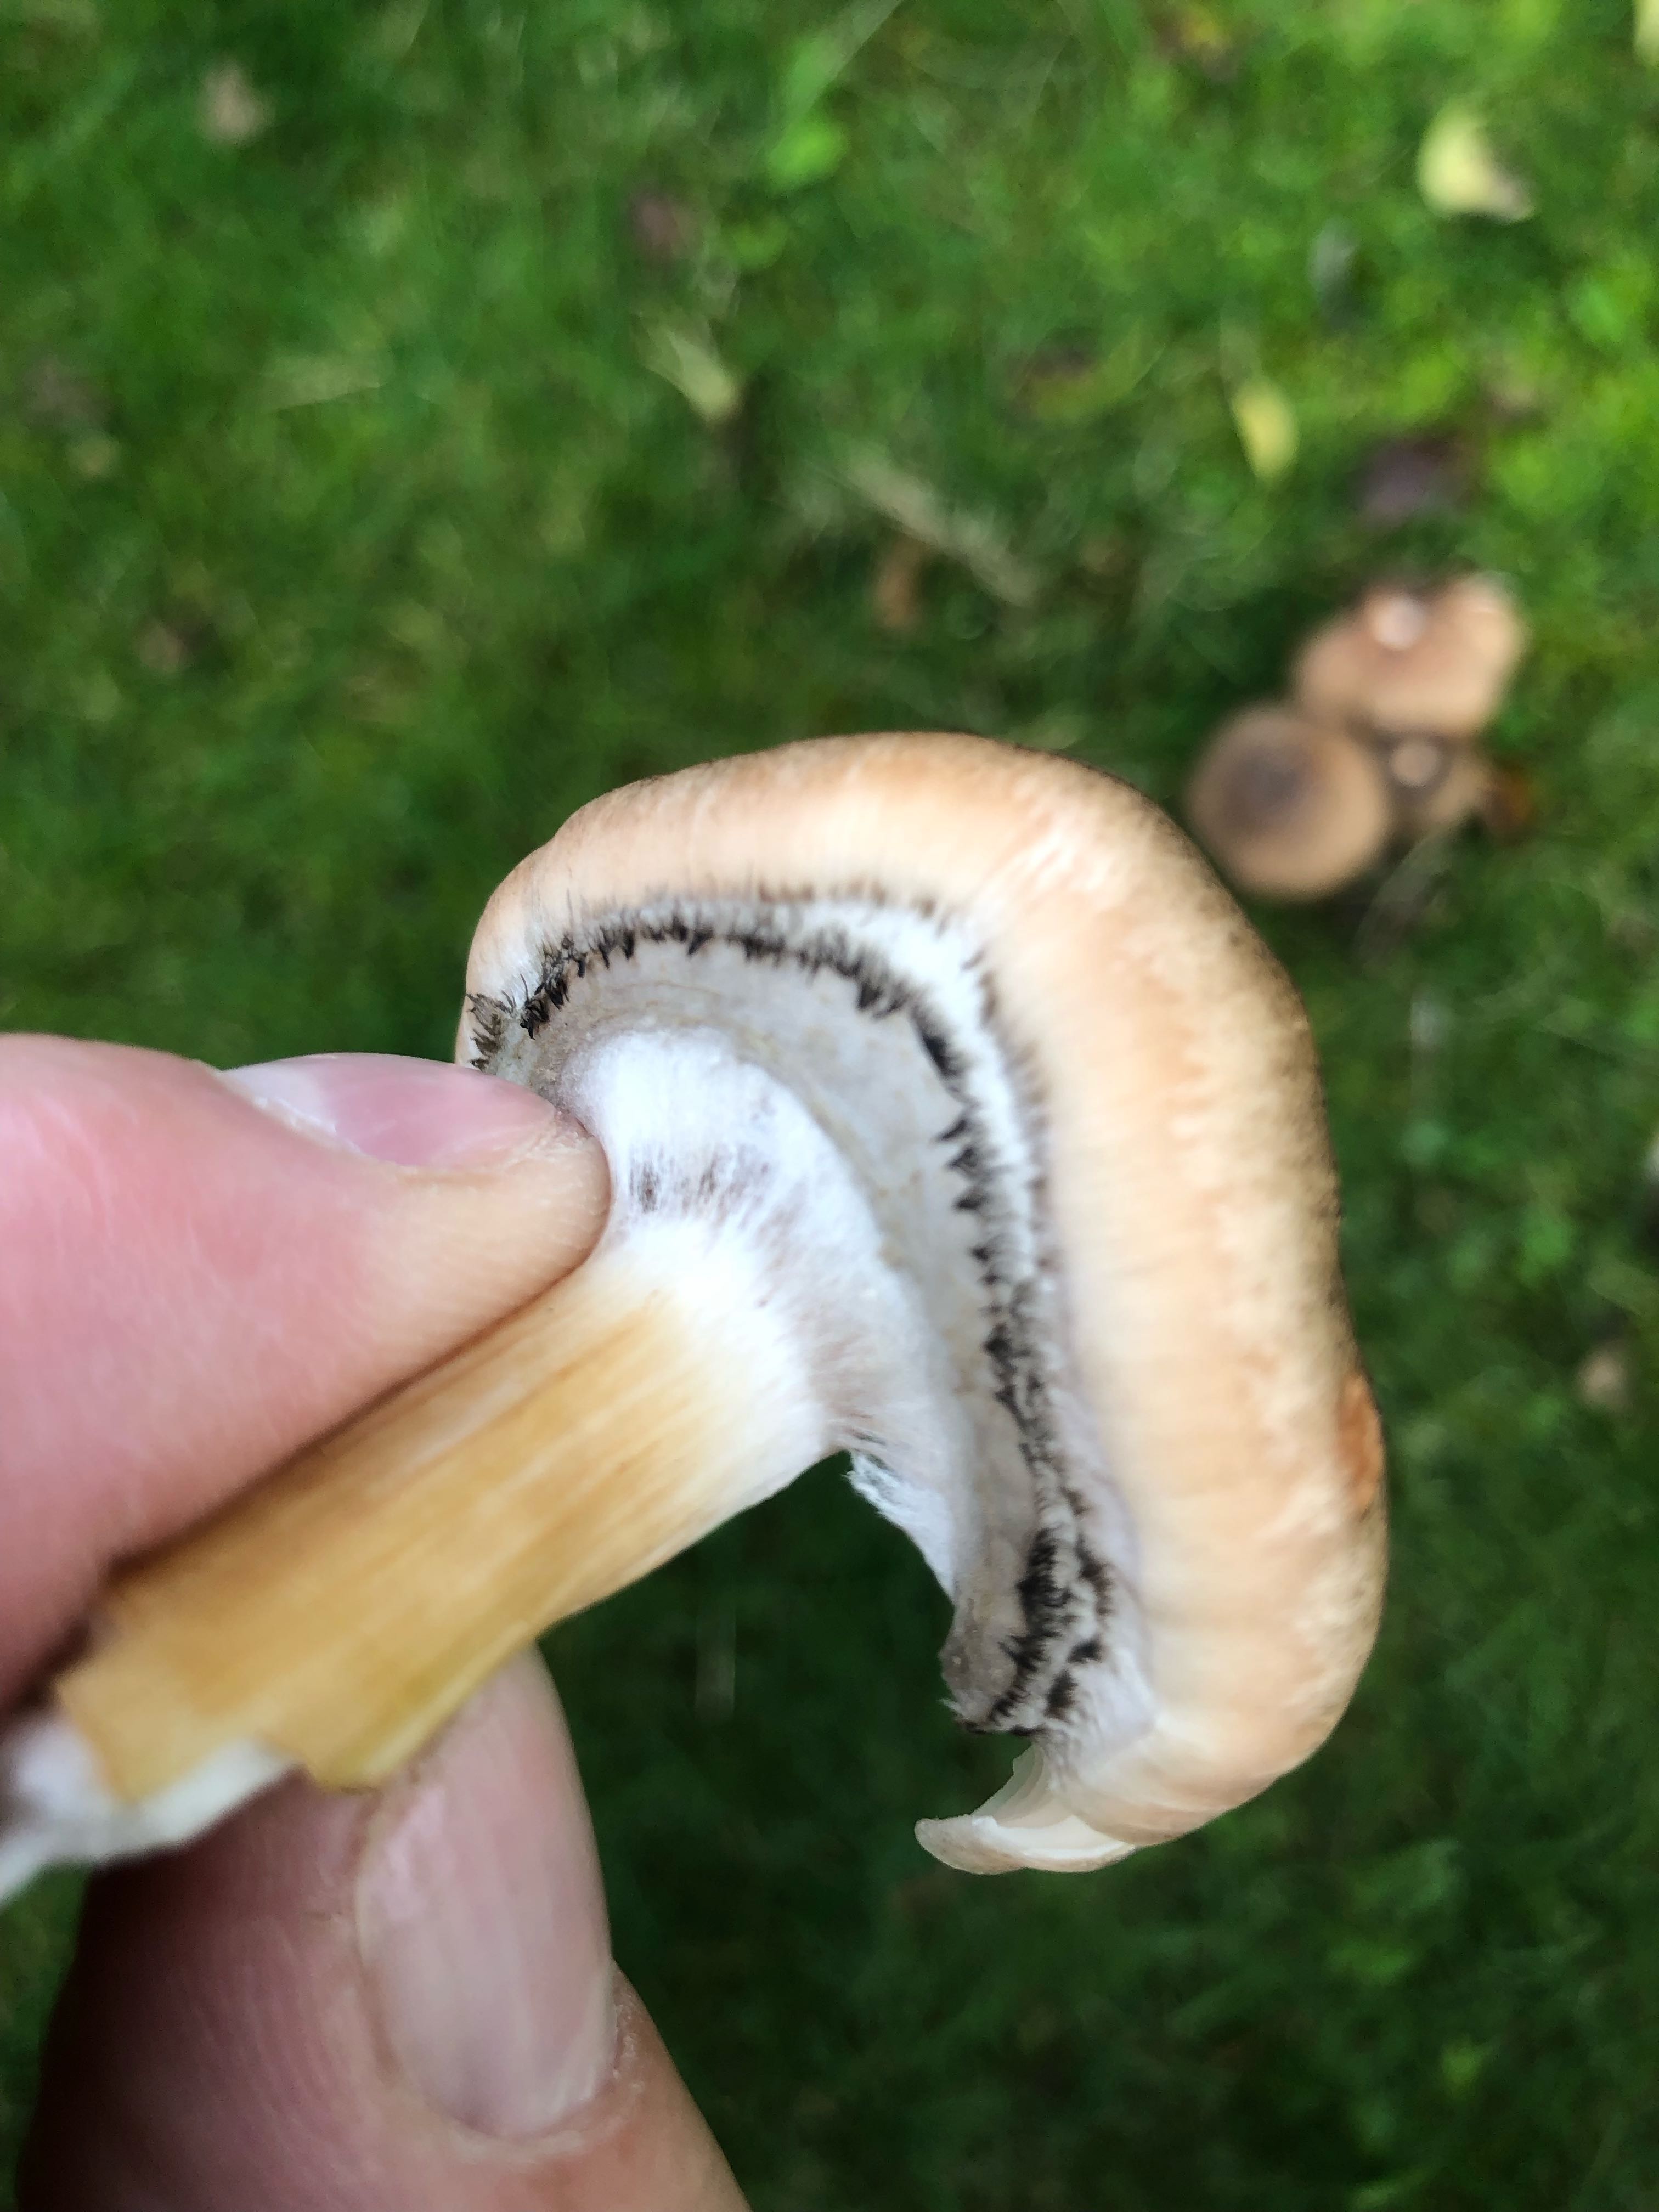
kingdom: Fungi
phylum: Basidiomycota
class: Agaricomycetes
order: Agaricales
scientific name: Agaricales
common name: champignonordenen
